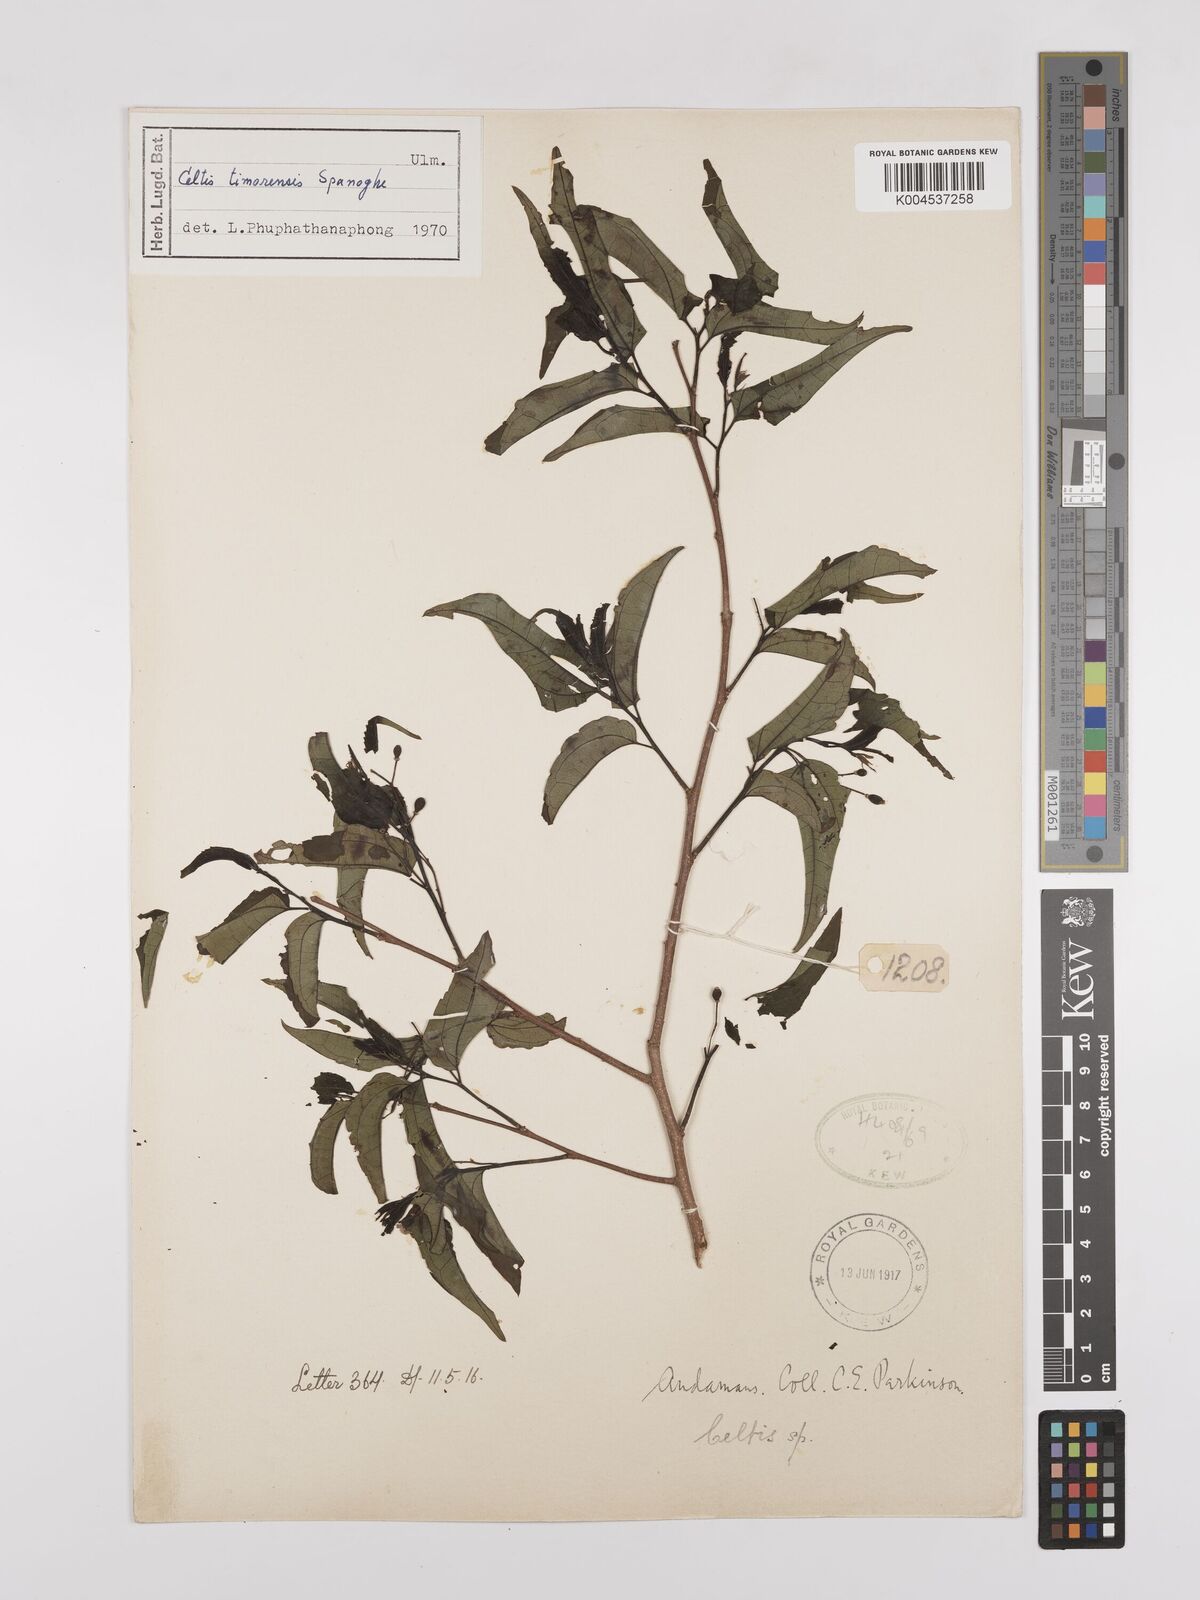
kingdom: Plantae
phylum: Tracheophyta
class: Magnoliopsida
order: Rosales
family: Cannabaceae
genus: Celtis
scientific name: Celtis
